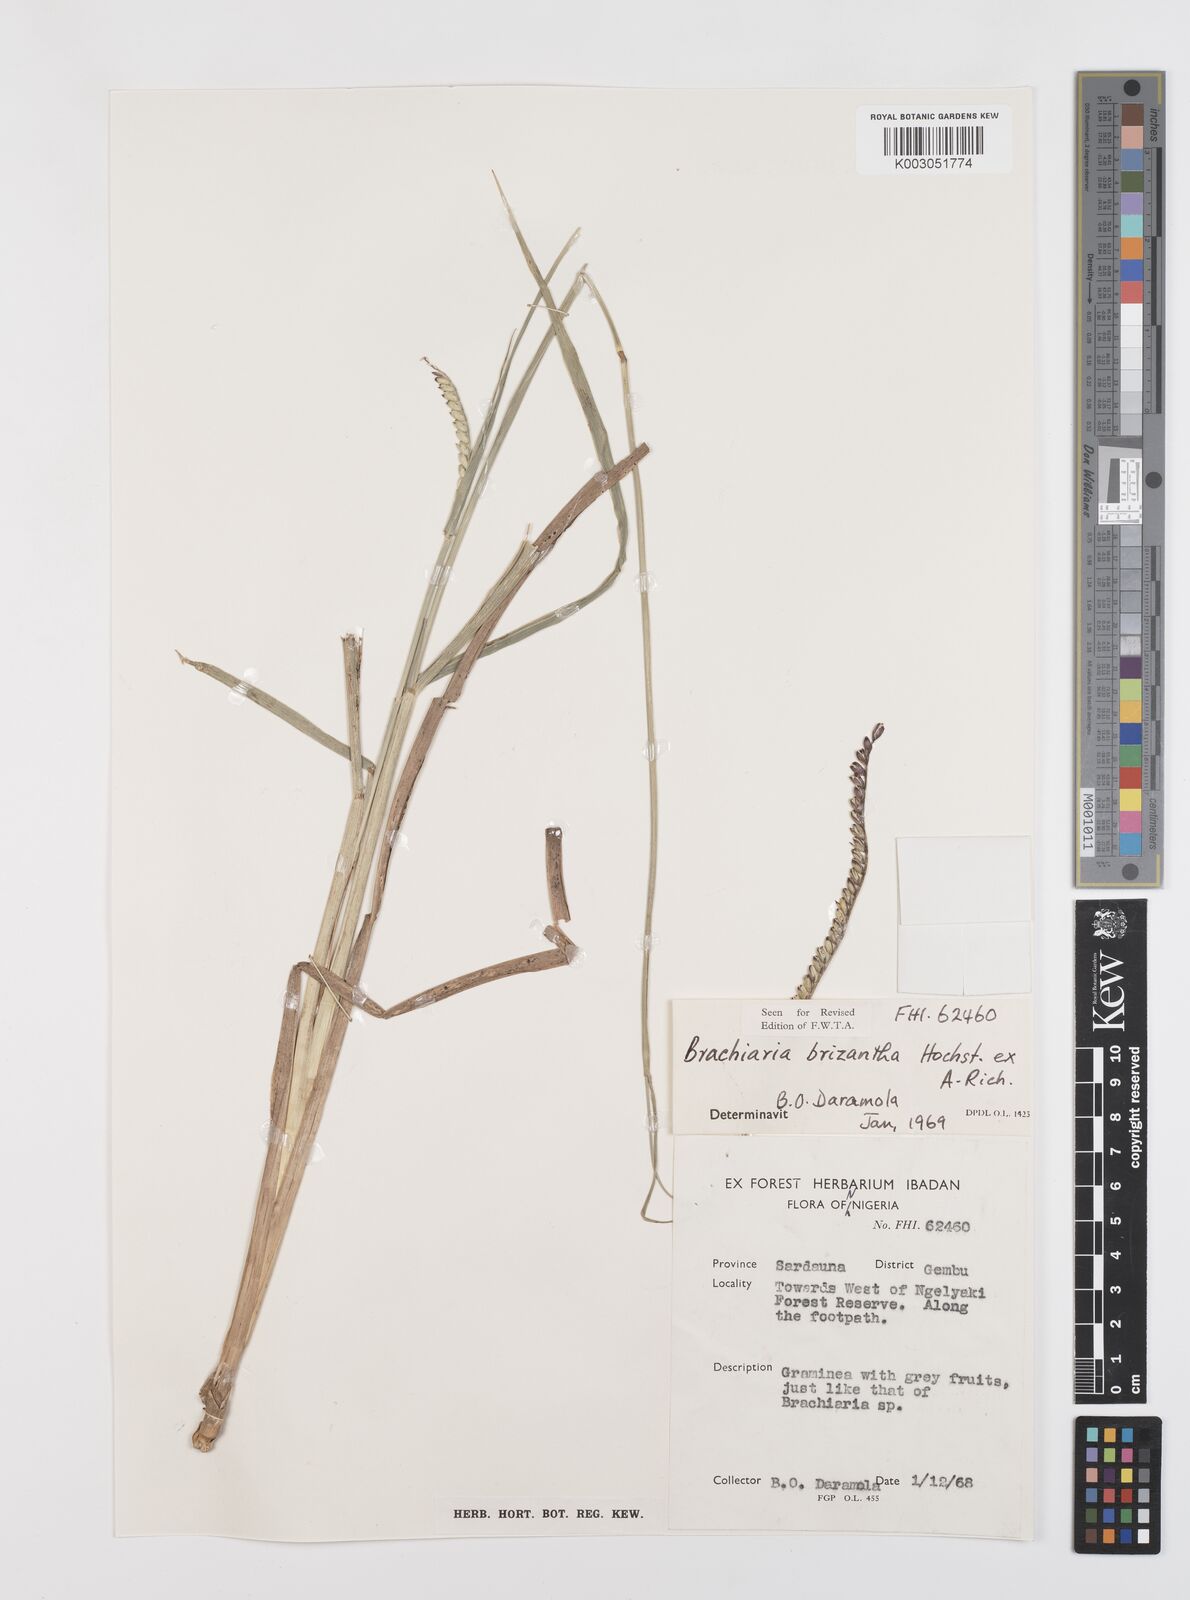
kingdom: Plantae
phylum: Tracheophyta
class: Liliopsida
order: Poales
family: Poaceae
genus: Urochloa
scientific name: Urochloa brizantha
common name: Palisade signalgrass
